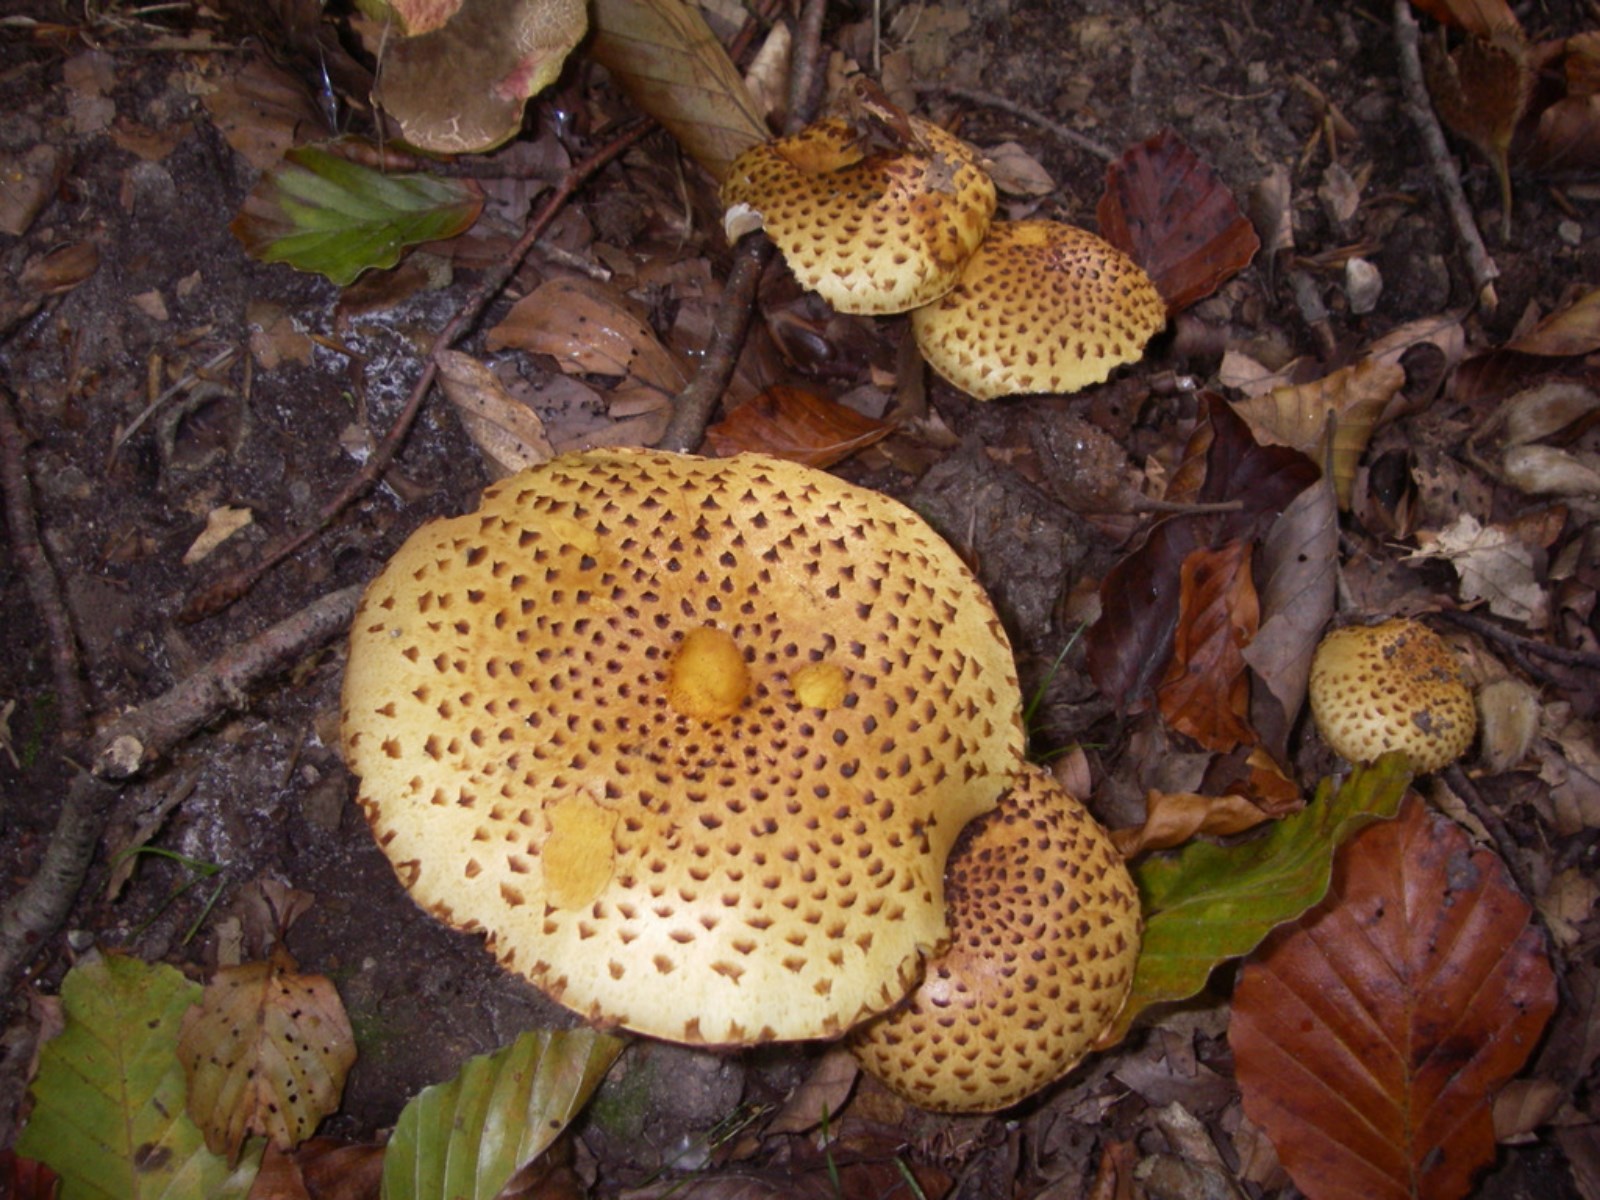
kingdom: Fungi
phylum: Basidiomycota
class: Agaricomycetes
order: Agaricales
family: Strophariaceae
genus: Pholiota
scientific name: Pholiota jahnii
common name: slimet skælhat
